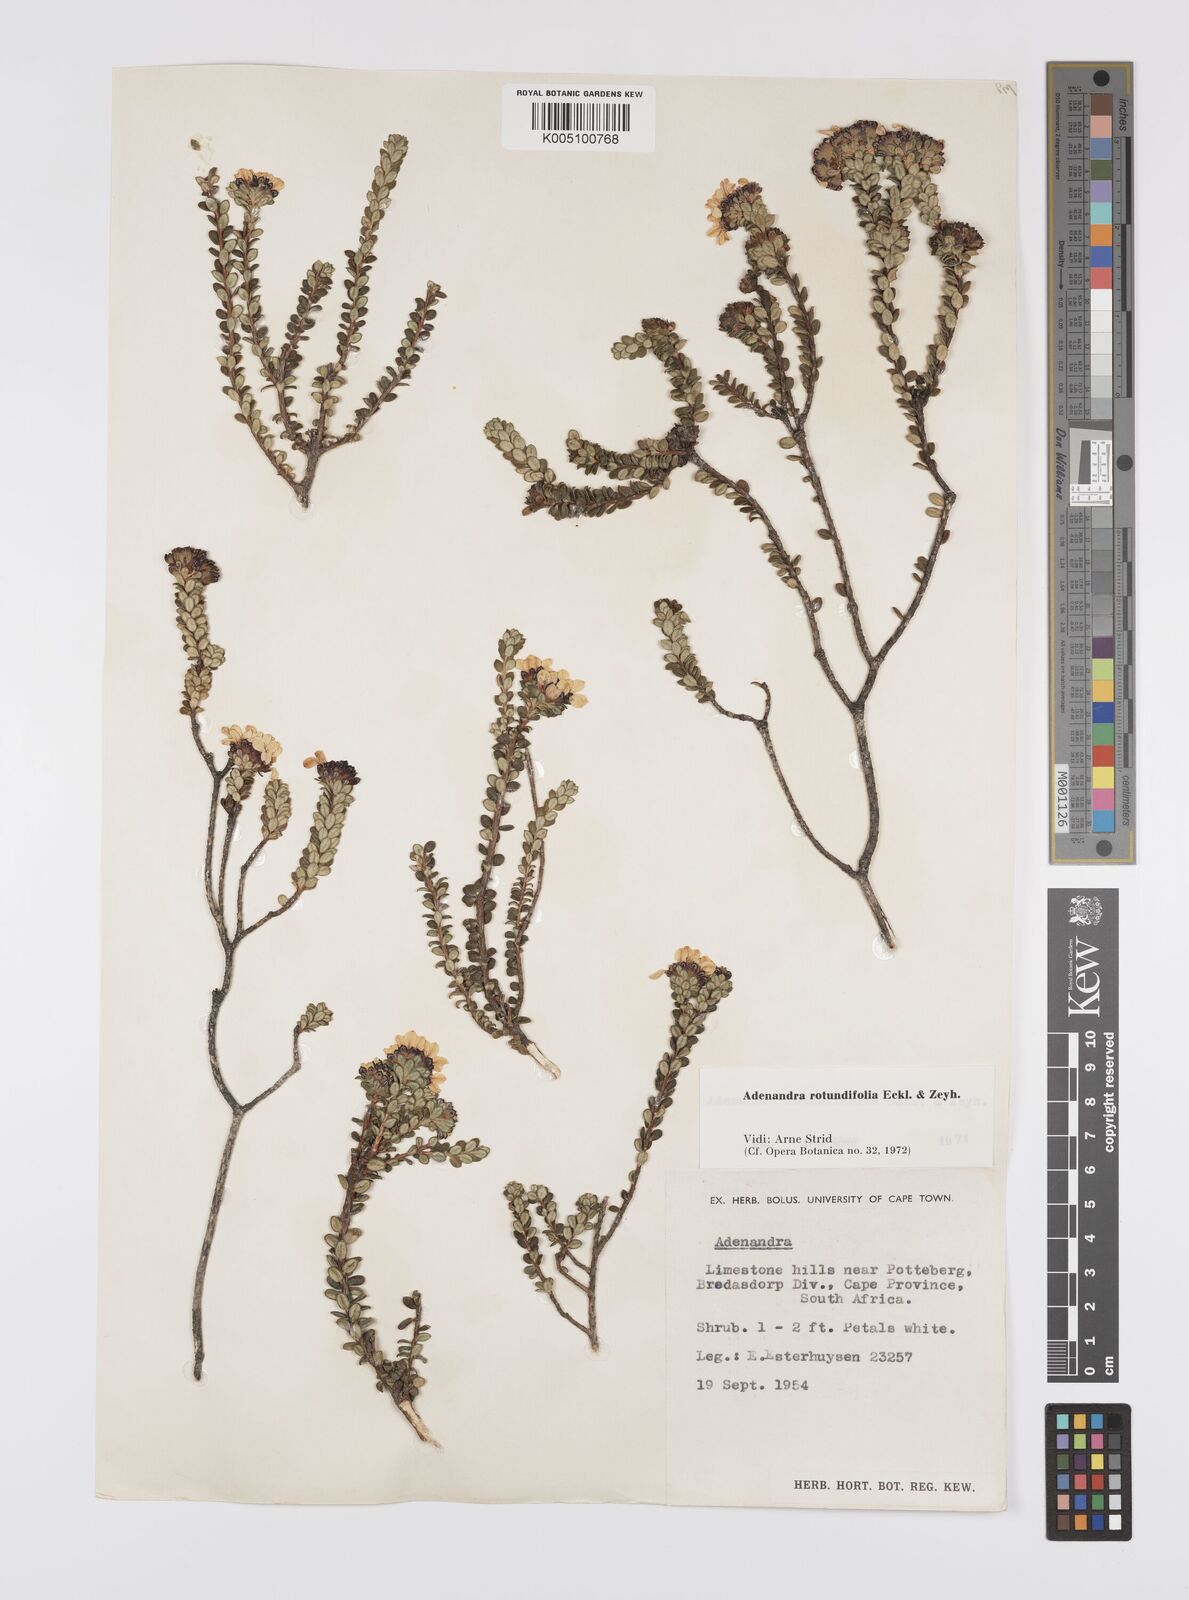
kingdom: Plantae
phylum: Tracheophyta
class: Magnoliopsida
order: Sapindales
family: Rutaceae
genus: Adenandra
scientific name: Adenandra rotundifolia
